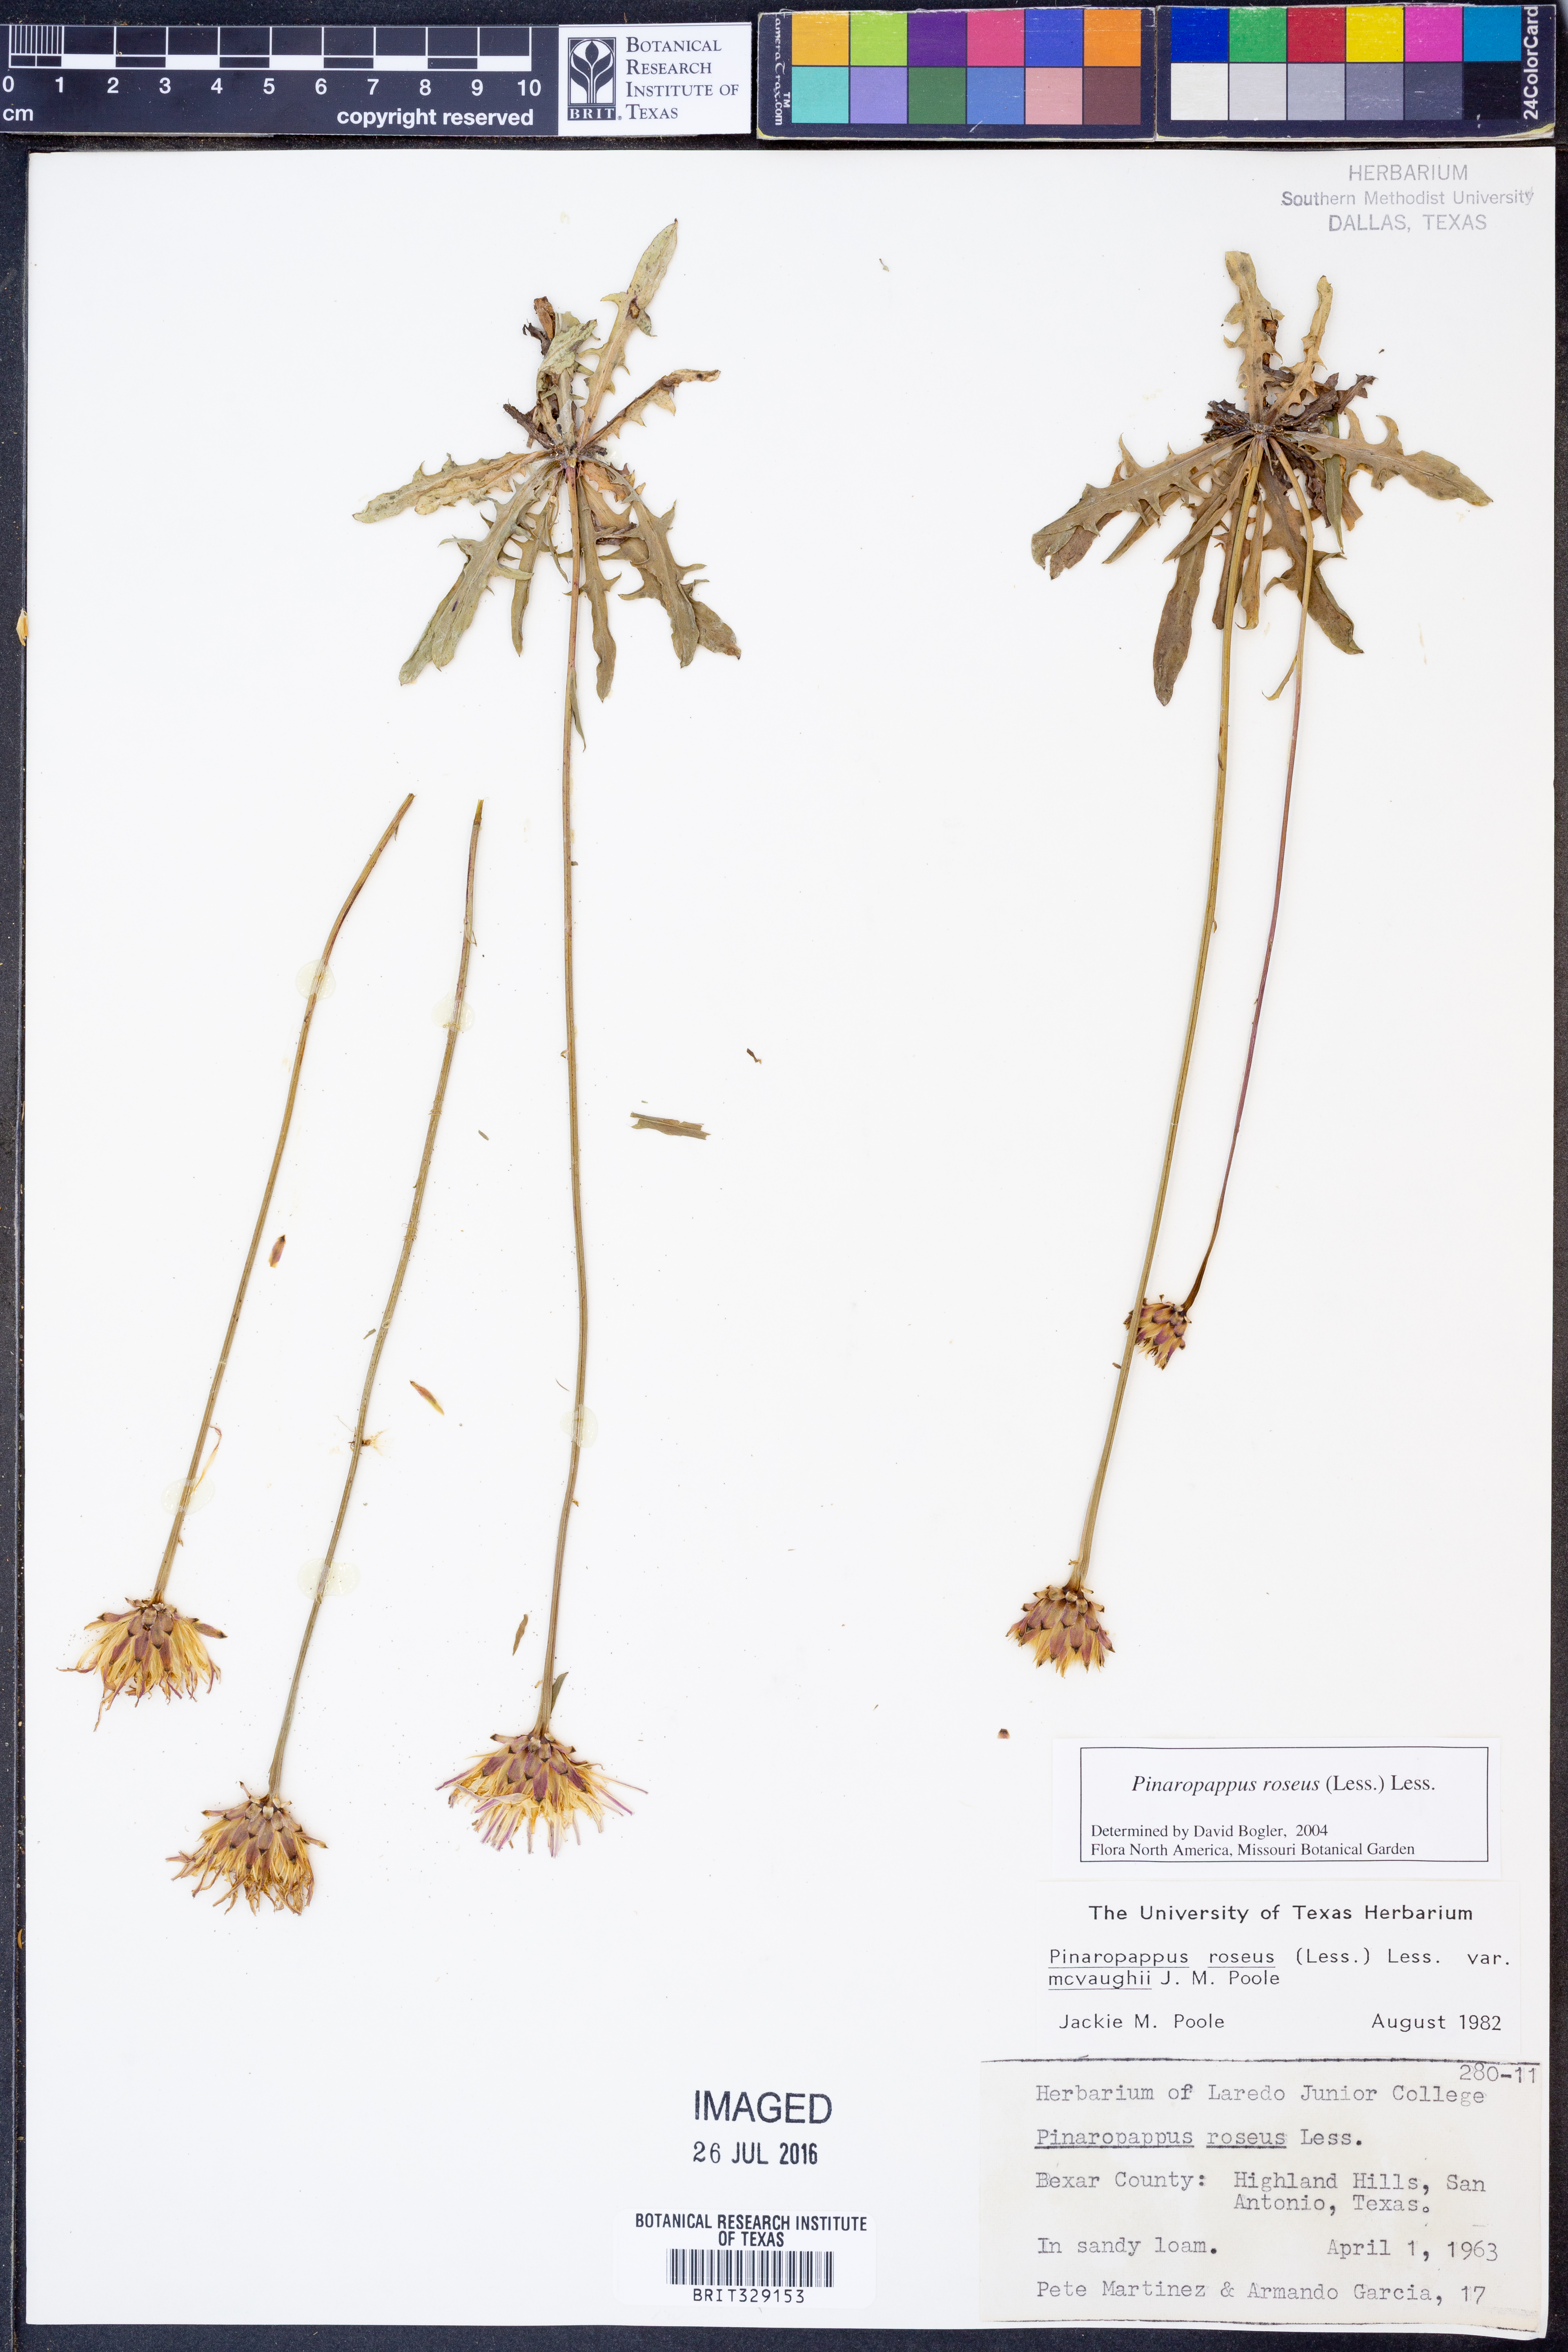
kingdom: Plantae
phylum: Tracheophyta
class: Magnoliopsida
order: Asterales
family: Asteraceae
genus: Pinaropappus
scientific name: Pinaropappus roseus
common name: Rock-lettuce
